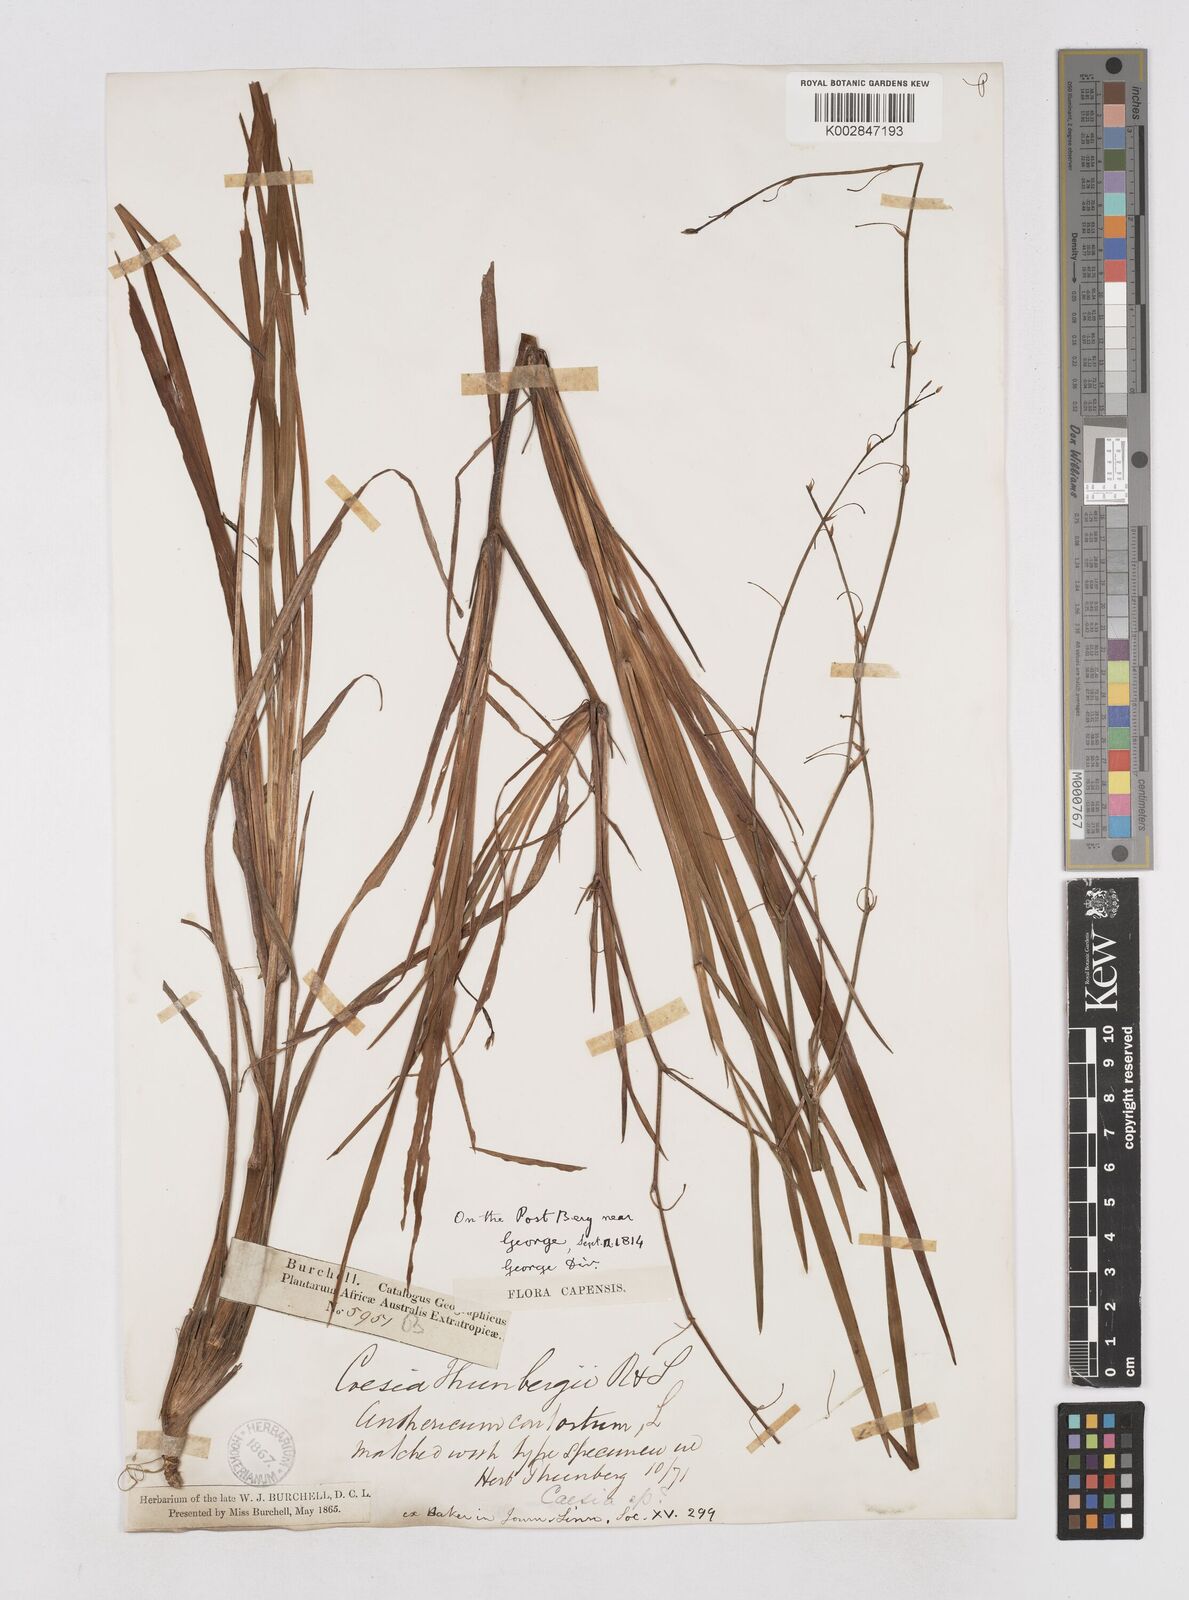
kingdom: Plantae
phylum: Tracheophyta
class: Liliopsida
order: Asparagales
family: Asphodelaceae
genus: Caesia
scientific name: Caesia contorta
